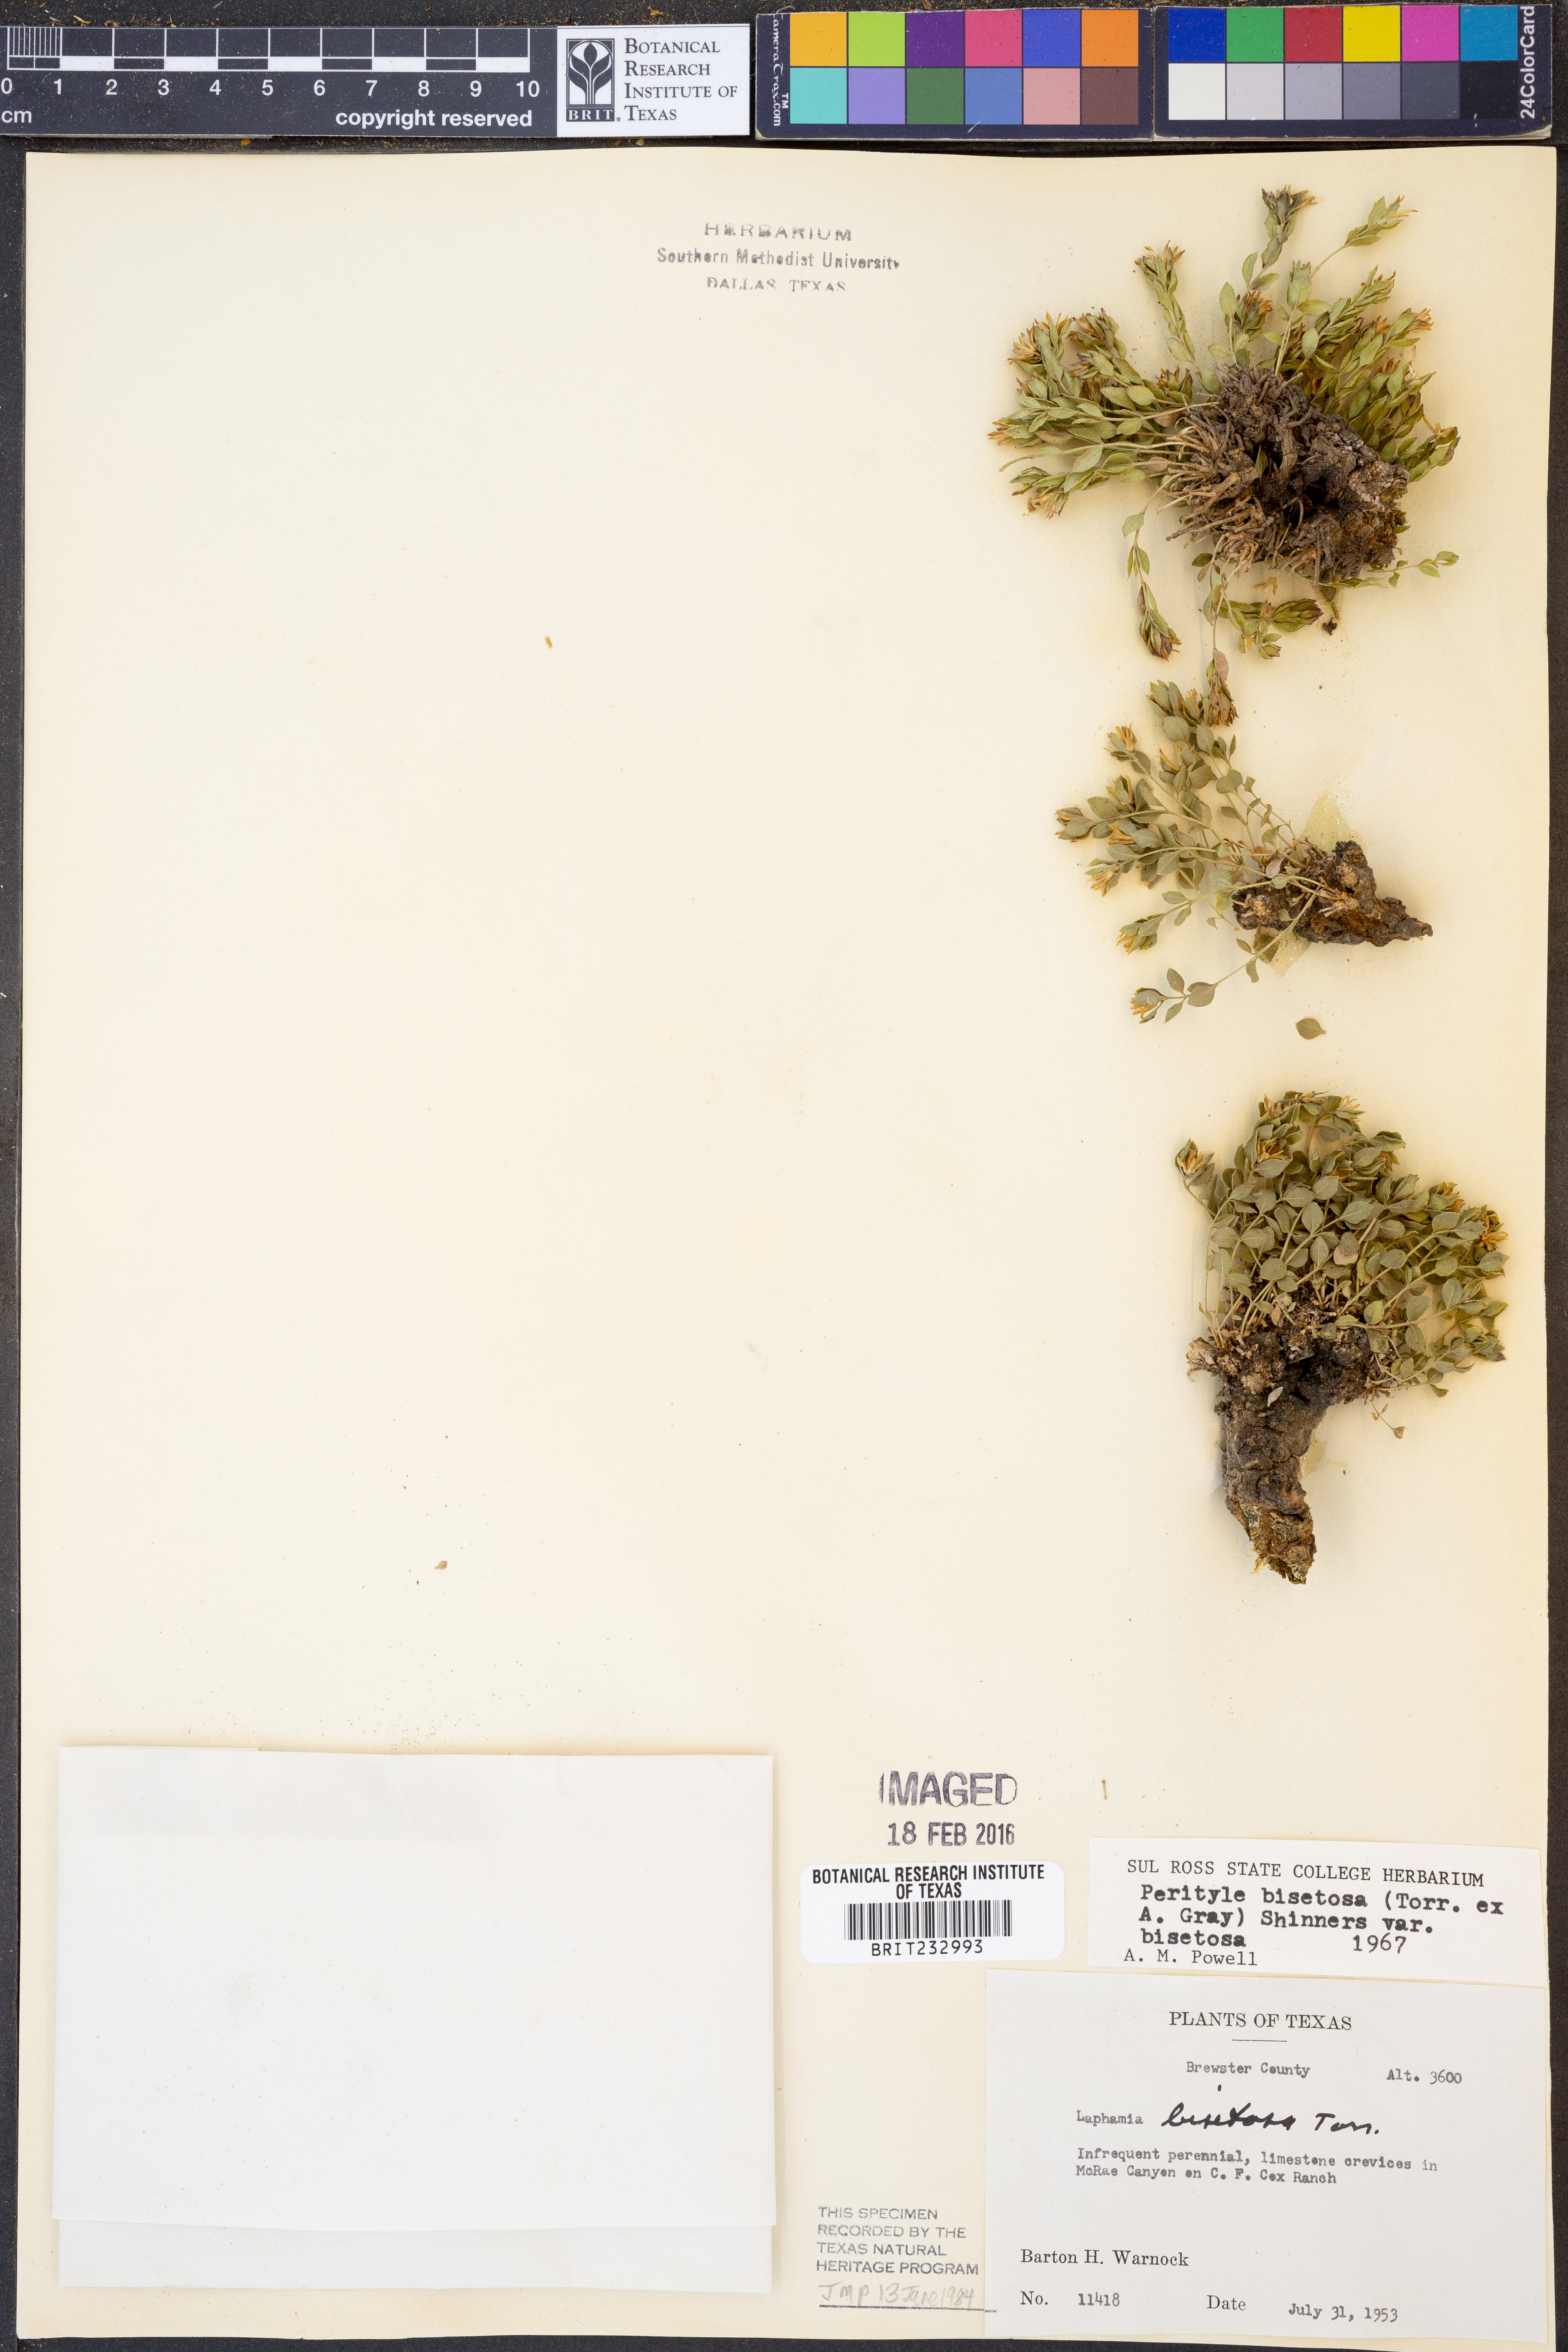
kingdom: Plantae
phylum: Tracheophyta
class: Magnoliopsida
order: Asterales
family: Asteraceae
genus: Laphamia
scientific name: Laphamia bisetosa
